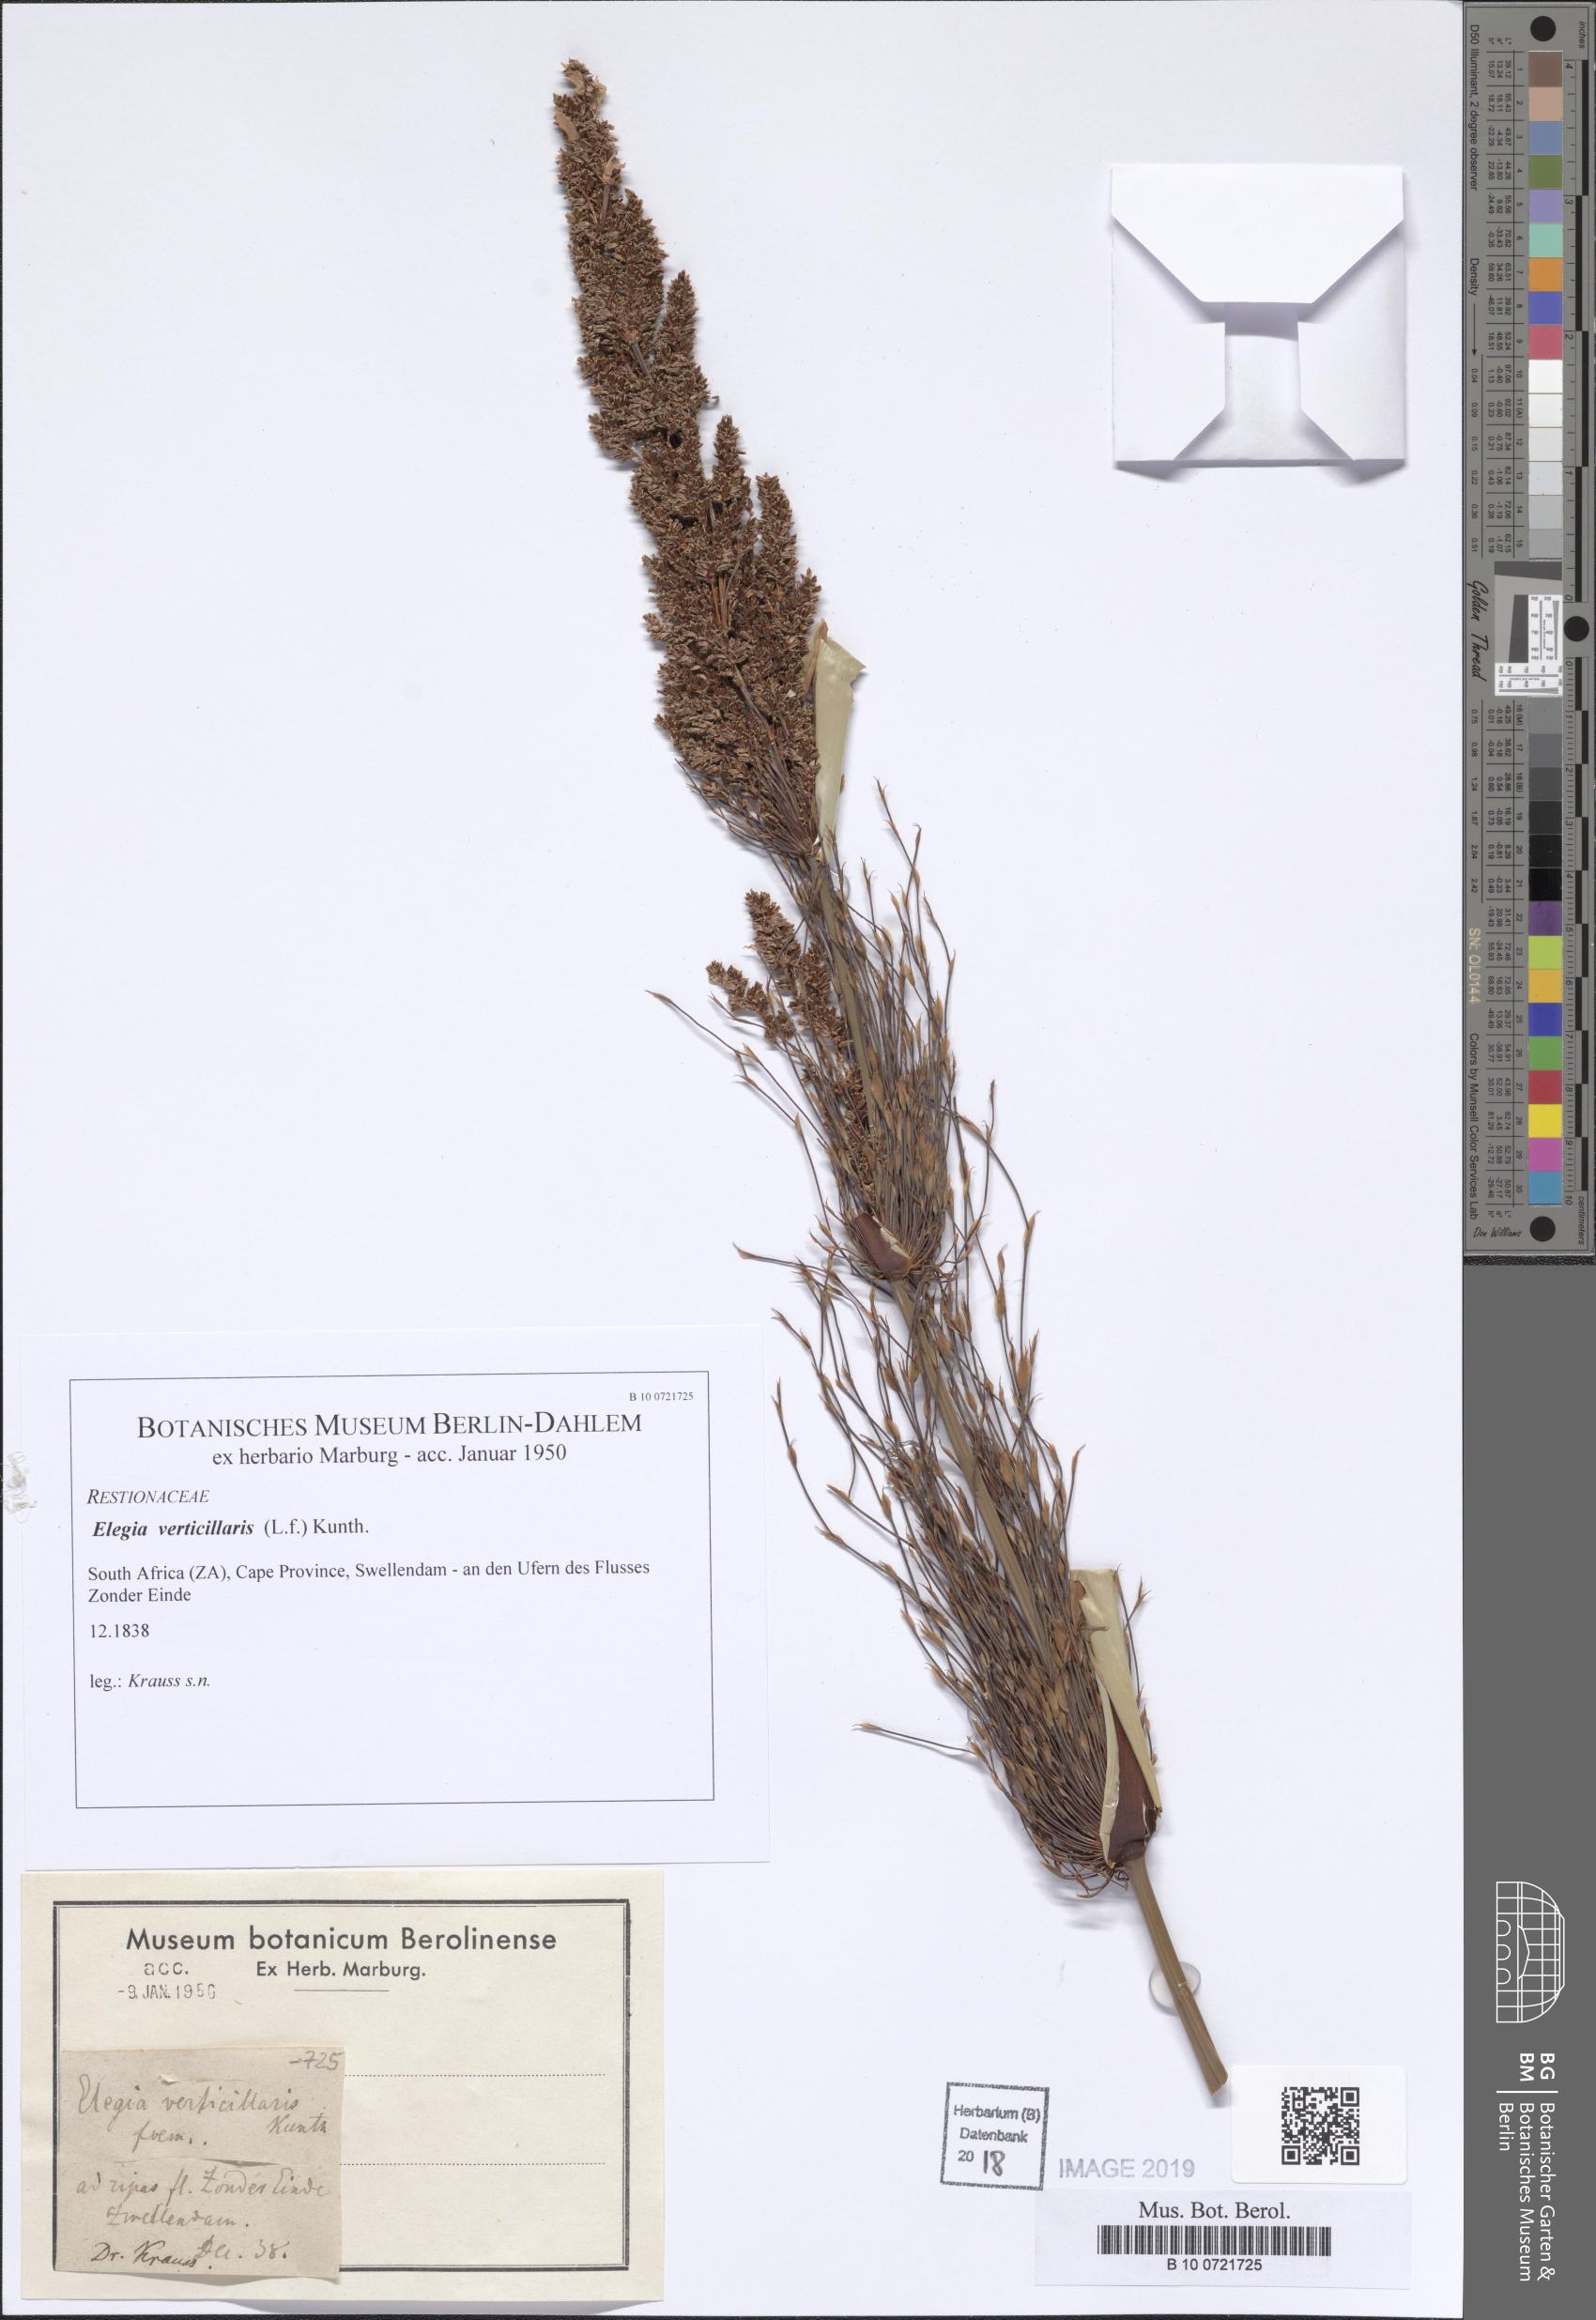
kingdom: Plantae
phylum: Tracheophyta
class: Liliopsida
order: Poales
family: Restionaceae
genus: Elegia
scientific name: Elegia capensis
